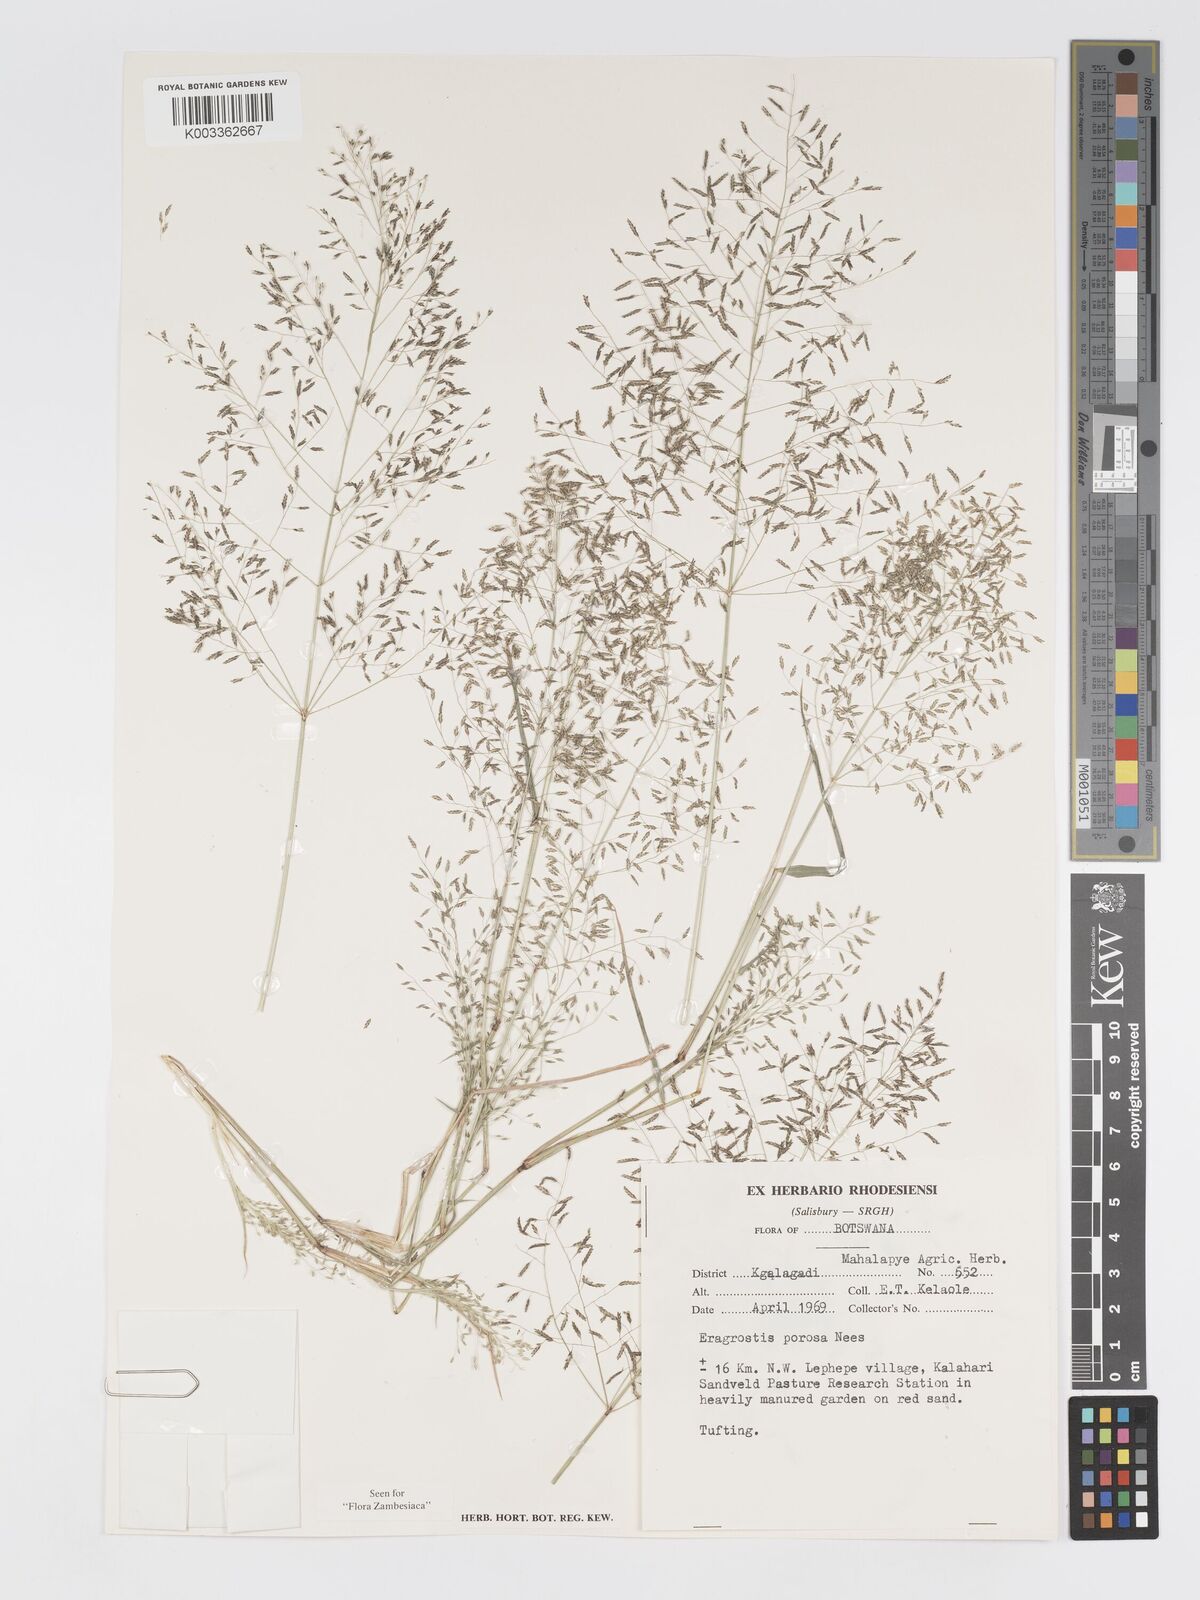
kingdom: Plantae
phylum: Tracheophyta
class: Liliopsida
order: Poales
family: Poaceae
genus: Eragrostis
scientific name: Eragrostis porosa
